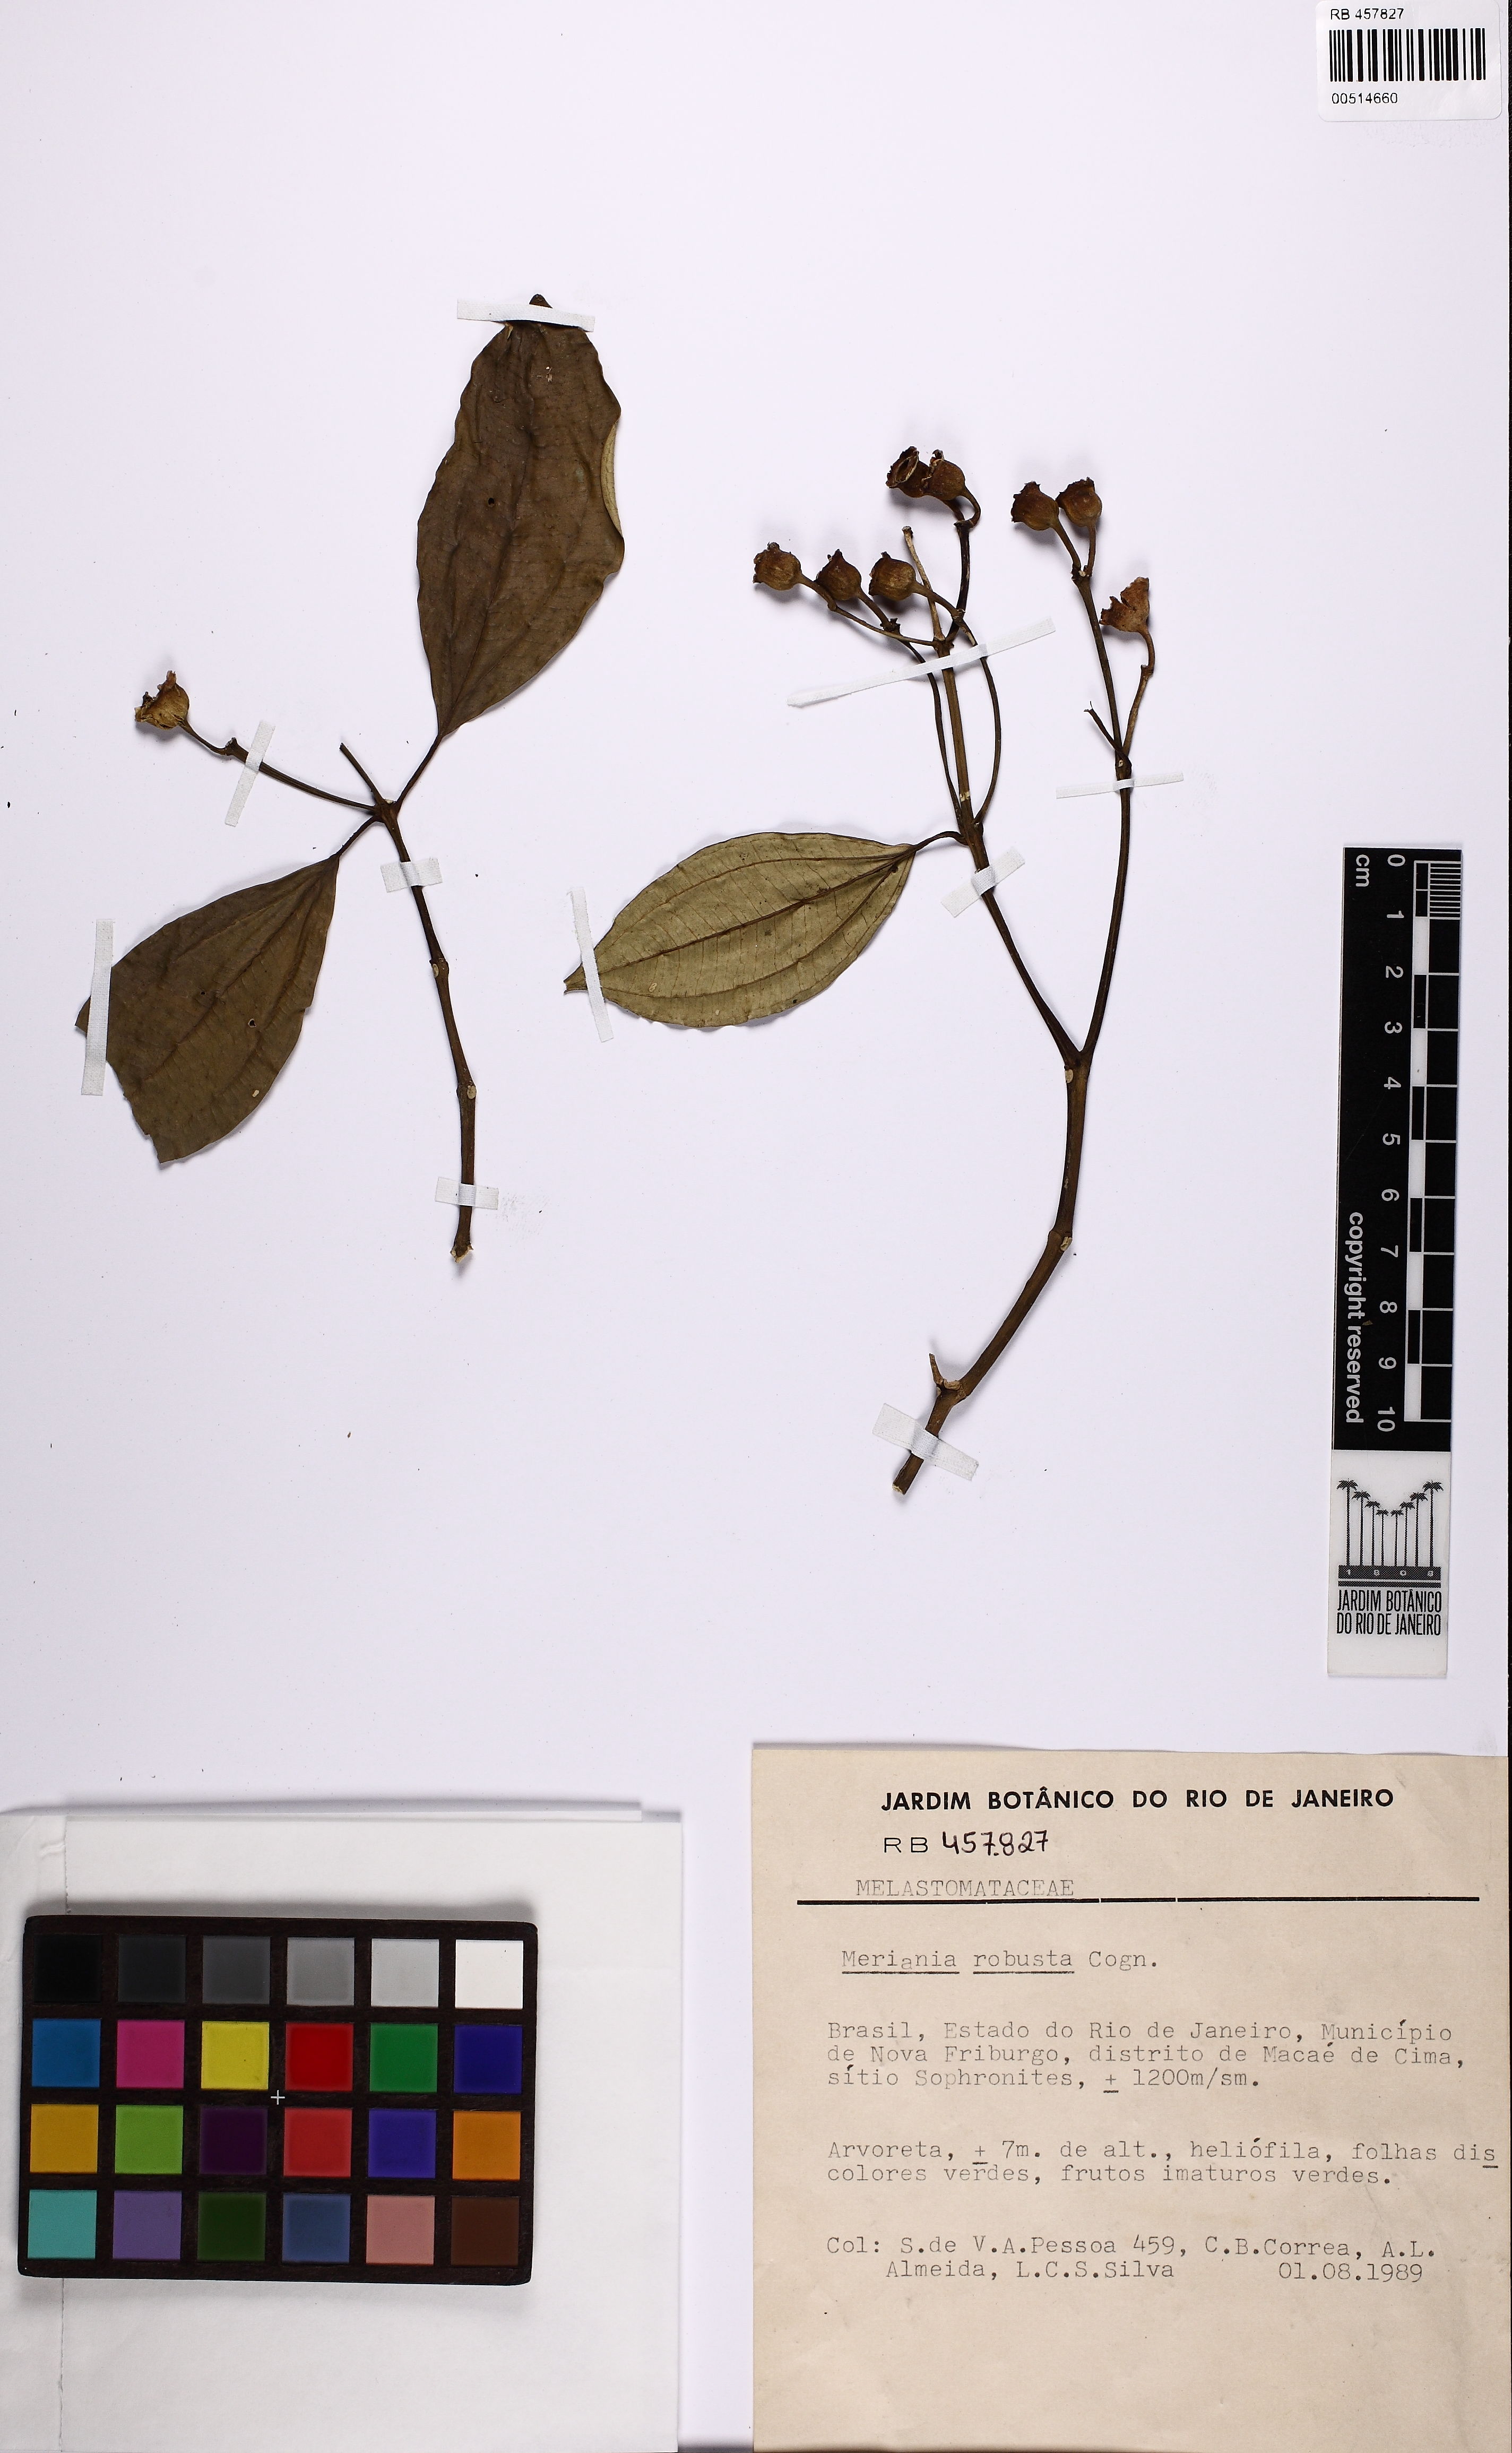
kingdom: Plantae
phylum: Tracheophyta
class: Magnoliopsida
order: Myrtales
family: Melastomataceae
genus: Meriania
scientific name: Meriania robusta
